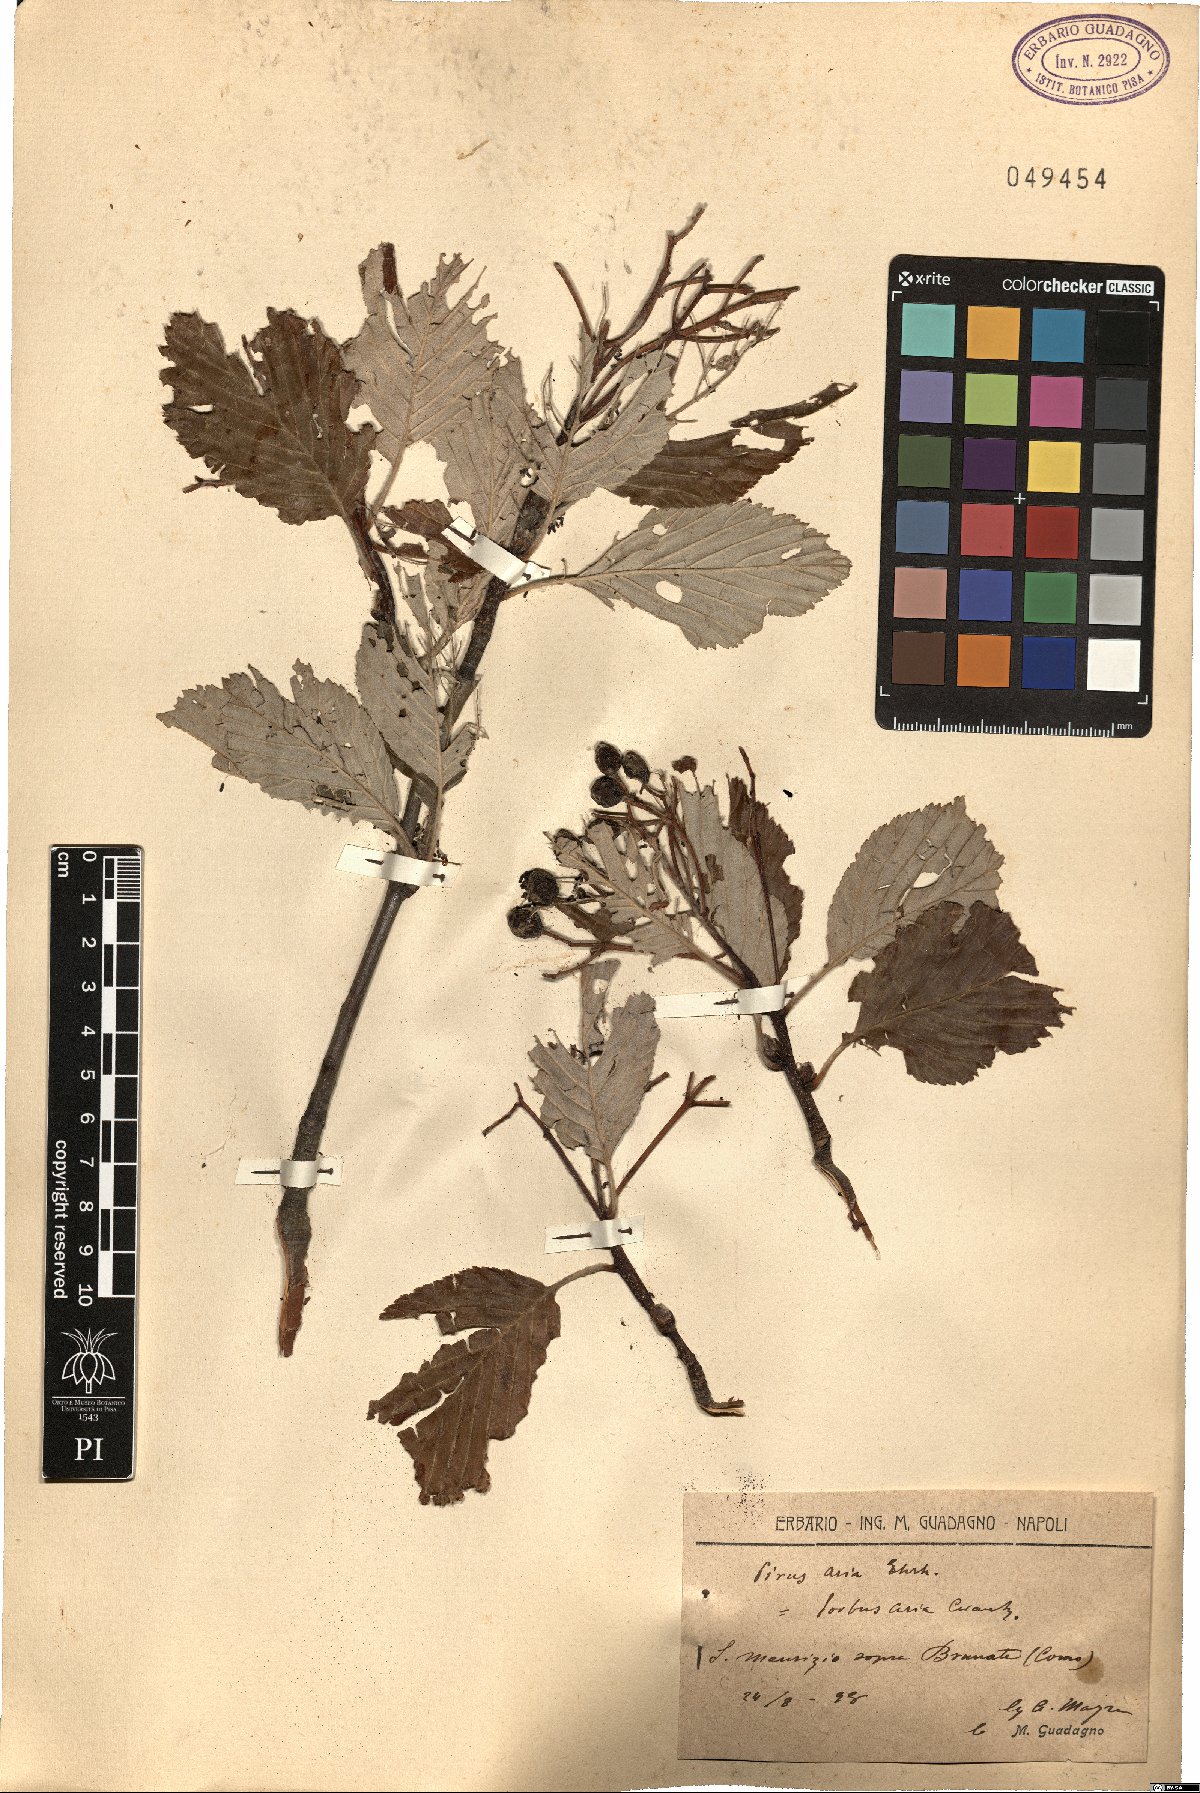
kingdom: Plantae
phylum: Tracheophyta
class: Magnoliopsida
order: Rosales
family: Rosaceae
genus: Aria
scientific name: Aria edulis
